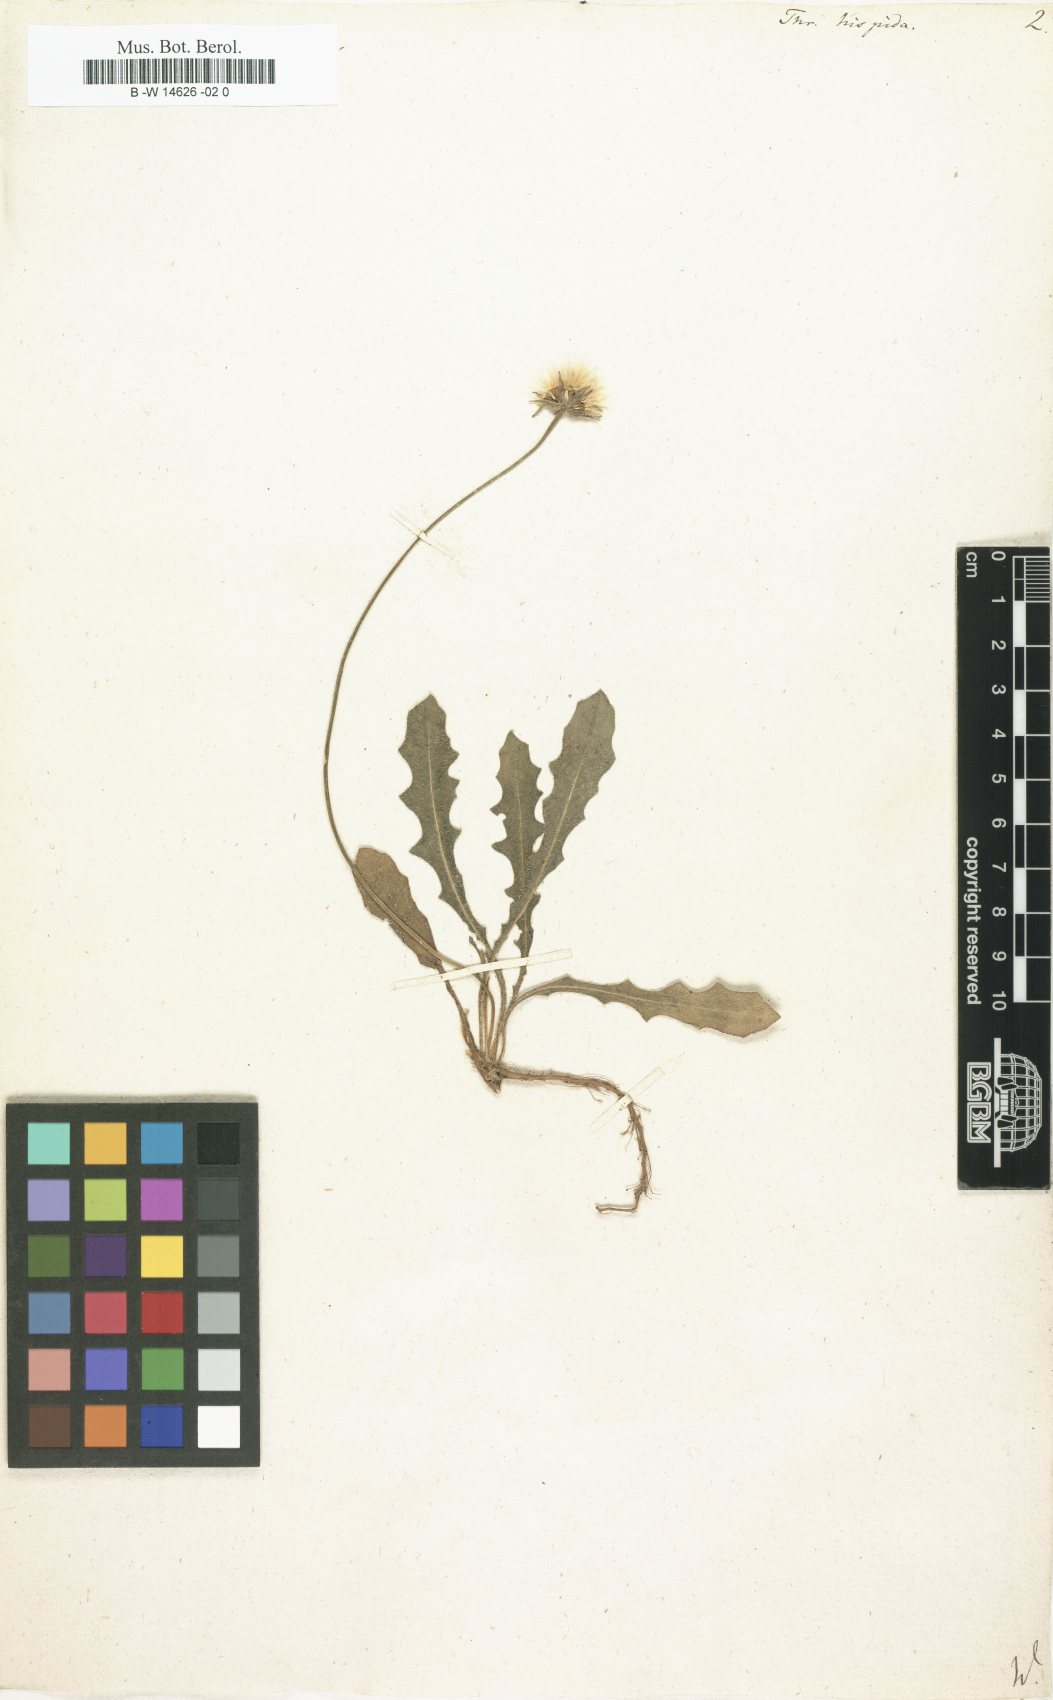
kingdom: Plantae
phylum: Tracheophyta
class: Magnoliopsida
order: Asterales
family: Asteraceae
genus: Thrincia
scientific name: Thrincia hispida
